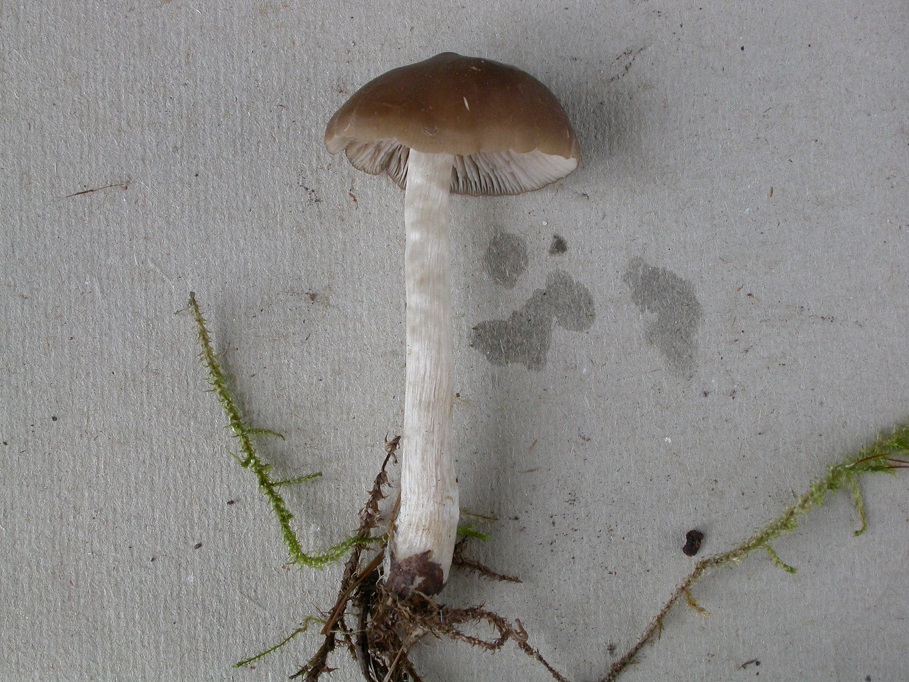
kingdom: Fungi
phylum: Basidiomycota
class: Agaricomycetes
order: Agaricales
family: Entolomataceae
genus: Entoloma
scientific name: Entoloma sericatum
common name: rank rødblad
